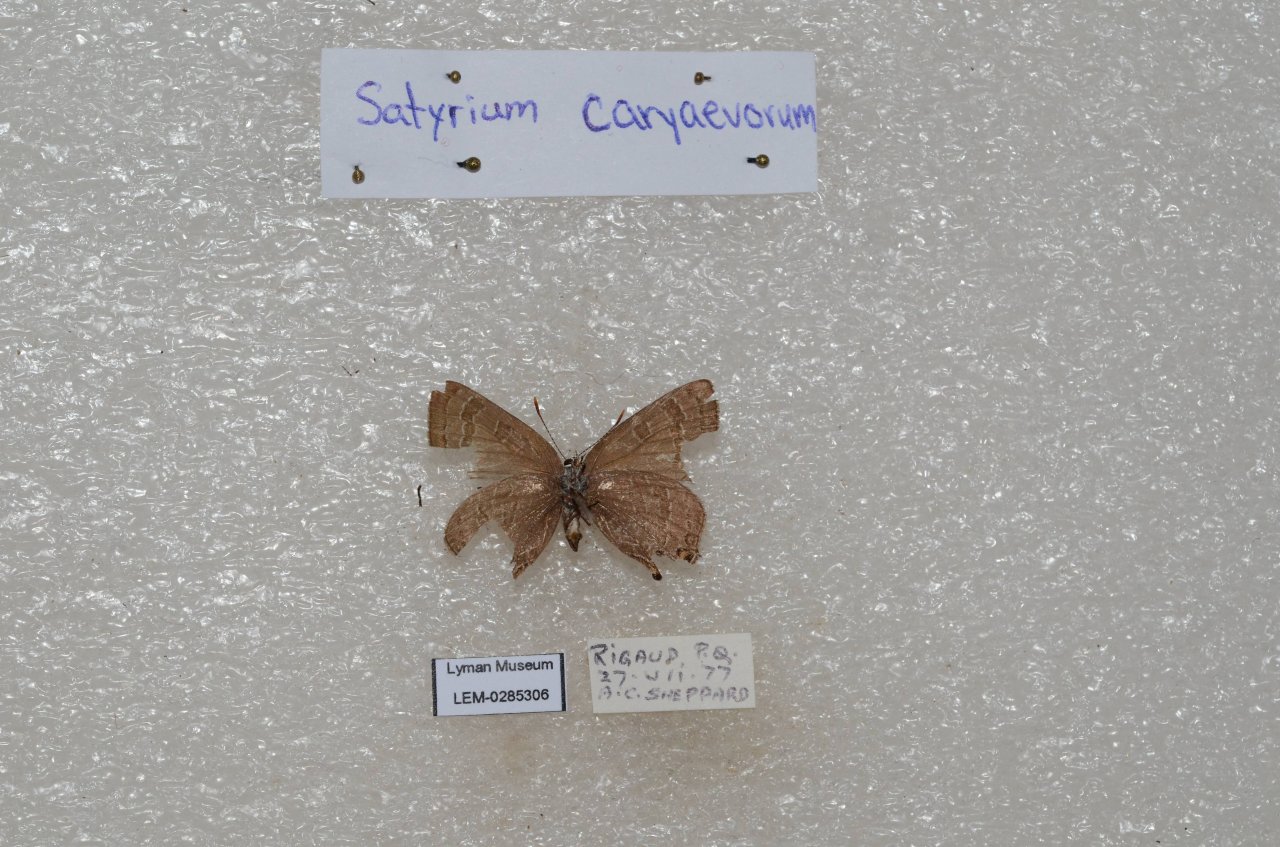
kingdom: Animalia
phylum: Arthropoda
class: Insecta
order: Lepidoptera
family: Lycaenidae
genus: Strymon
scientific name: Strymon caryaevorus
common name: Hickory Hairstreak
